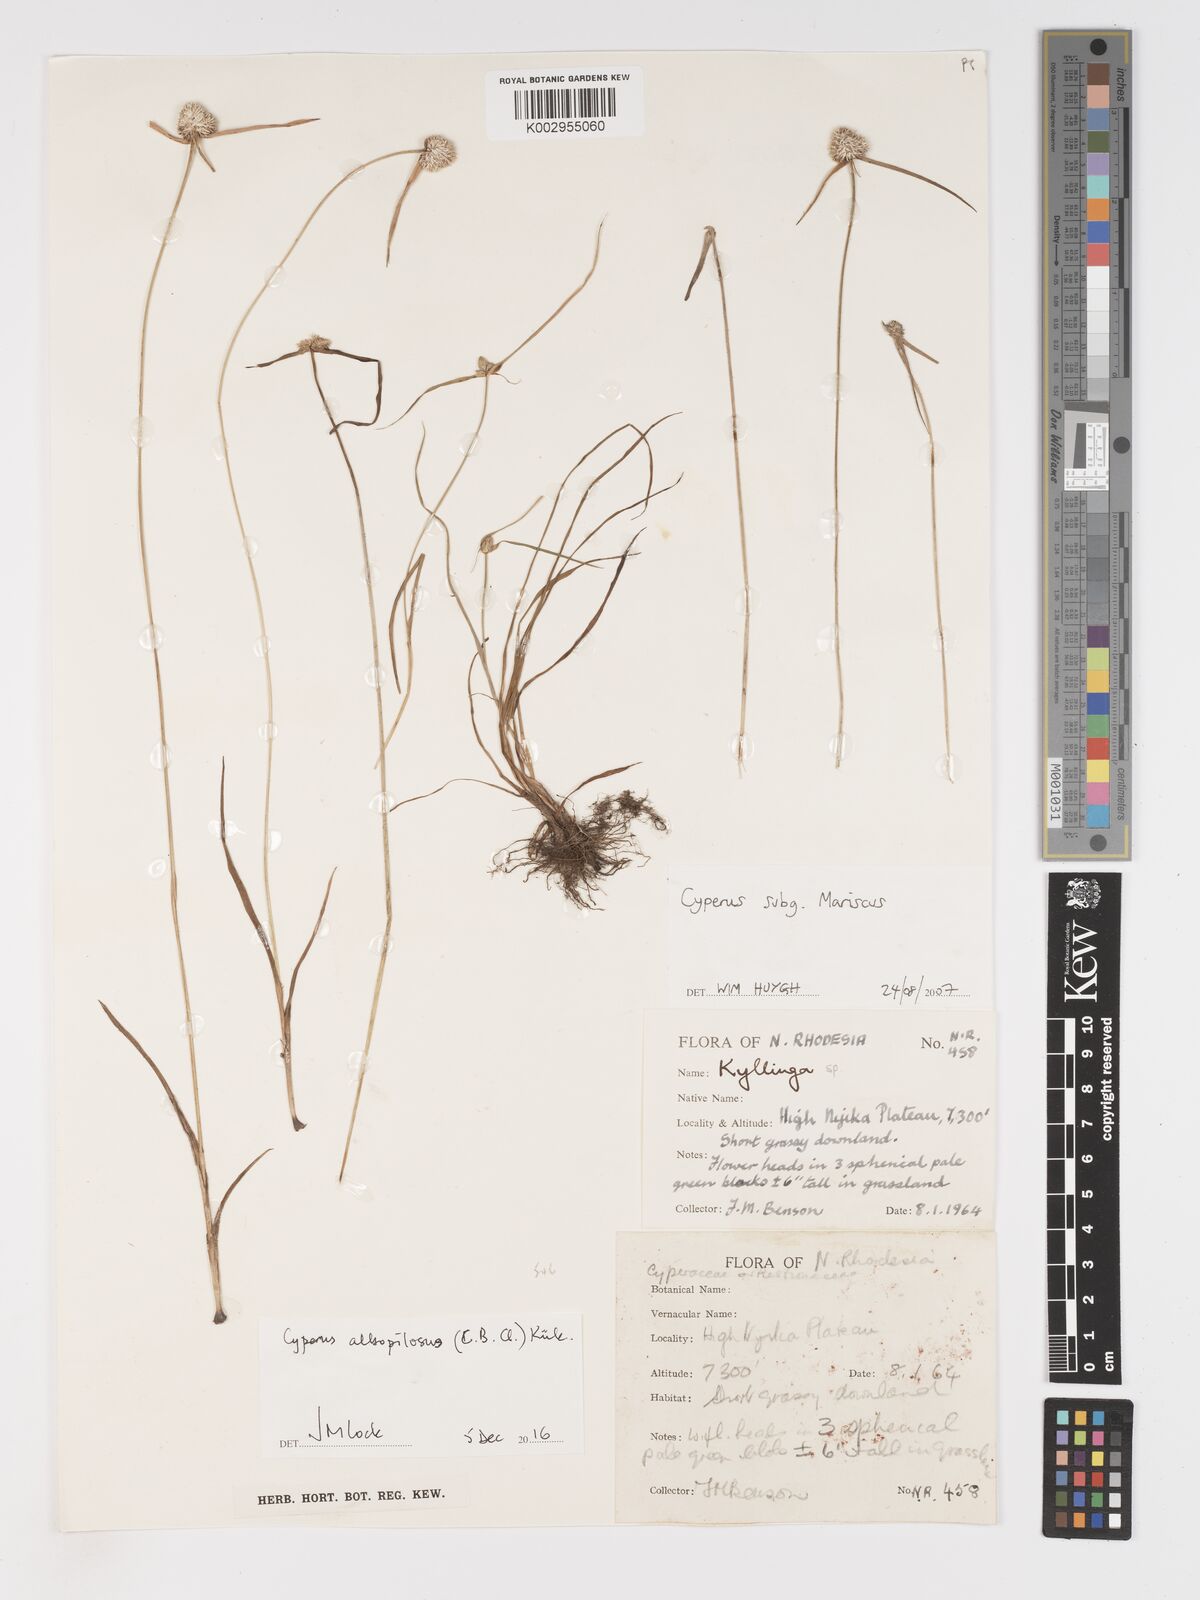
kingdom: Plantae
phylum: Tracheophyta
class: Liliopsida
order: Poales
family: Cyperaceae
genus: Cyperus
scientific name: Cyperus albopilosus
